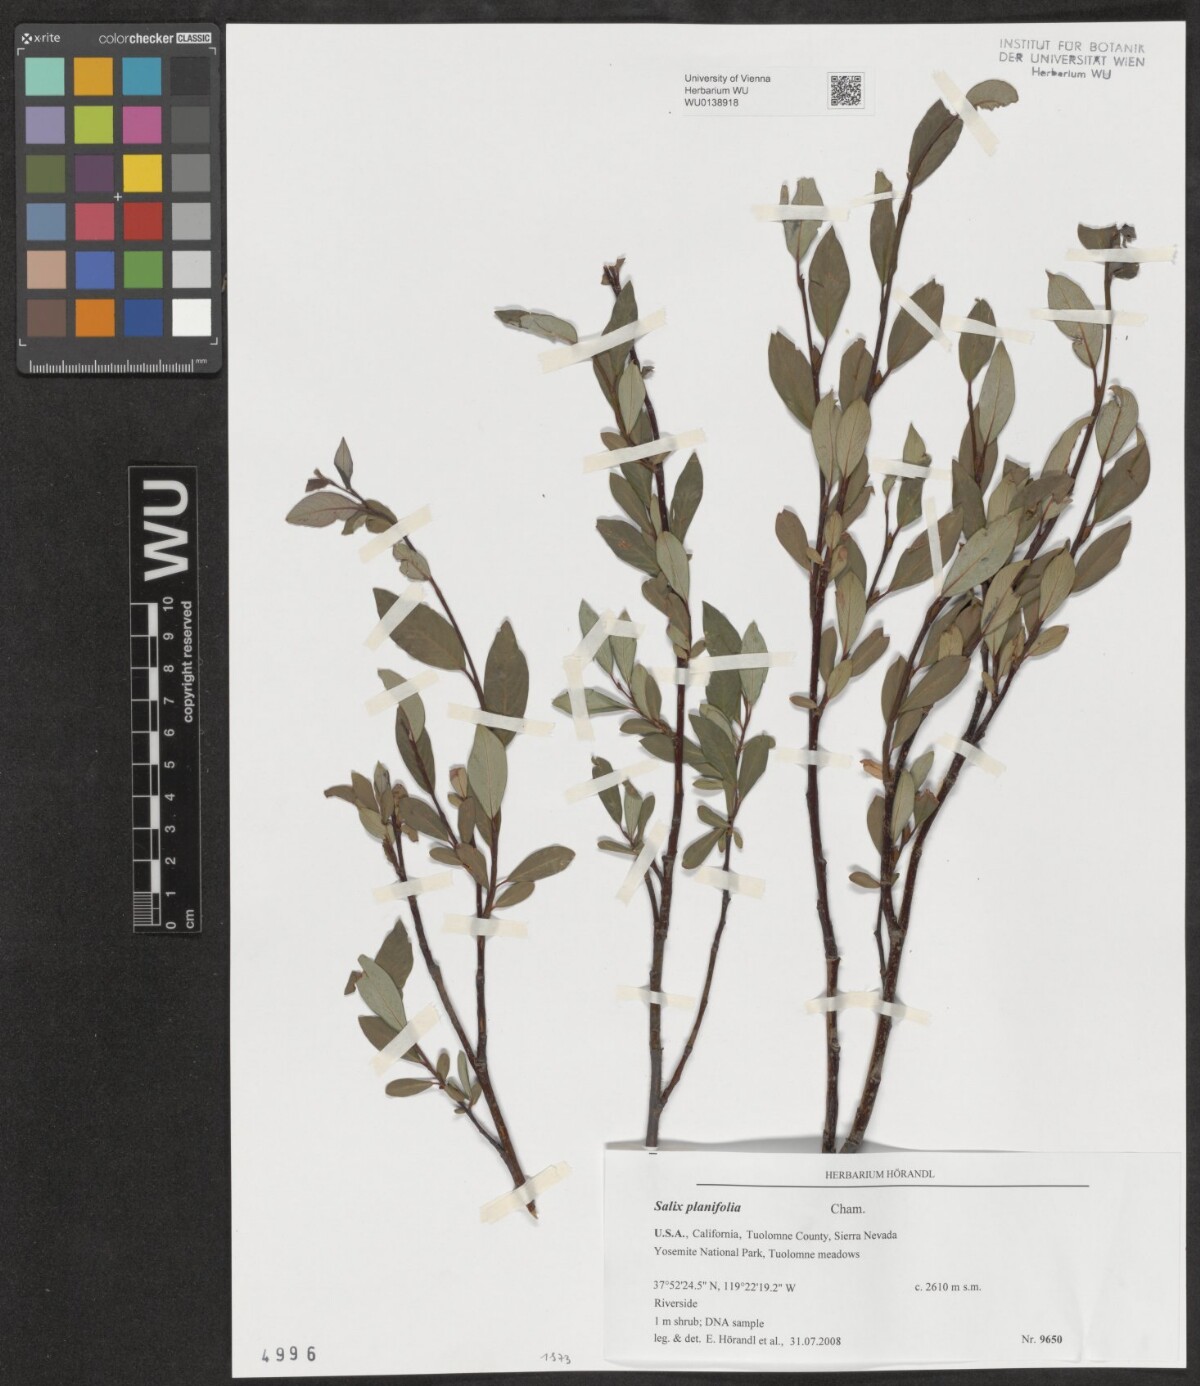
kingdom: Plantae
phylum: Tracheophyta
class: Magnoliopsida
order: Malpighiales
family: Salicaceae
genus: Salix
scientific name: Salix planifolia
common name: Mountain willow
